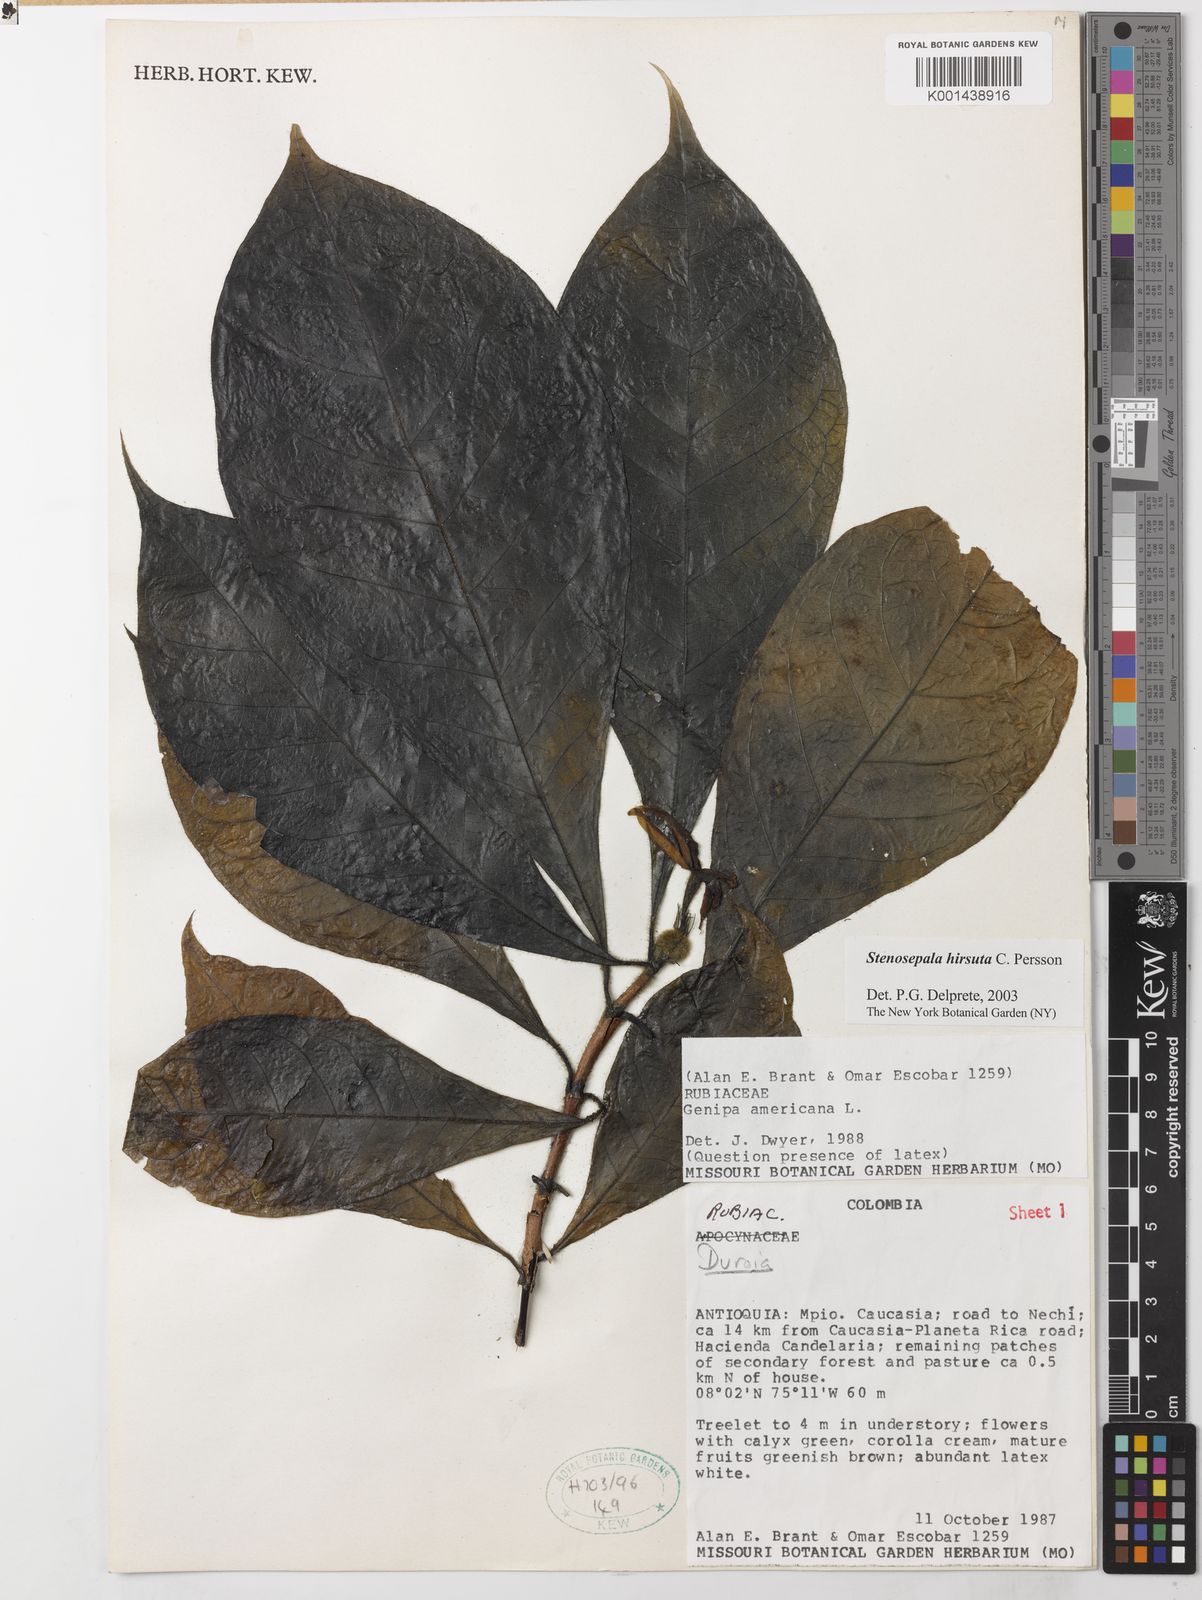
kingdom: Plantae
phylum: Tracheophyta
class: Magnoliopsida
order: Gentianales
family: Rubiaceae
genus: Stenosepala
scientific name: Stenosepala hirsuta
